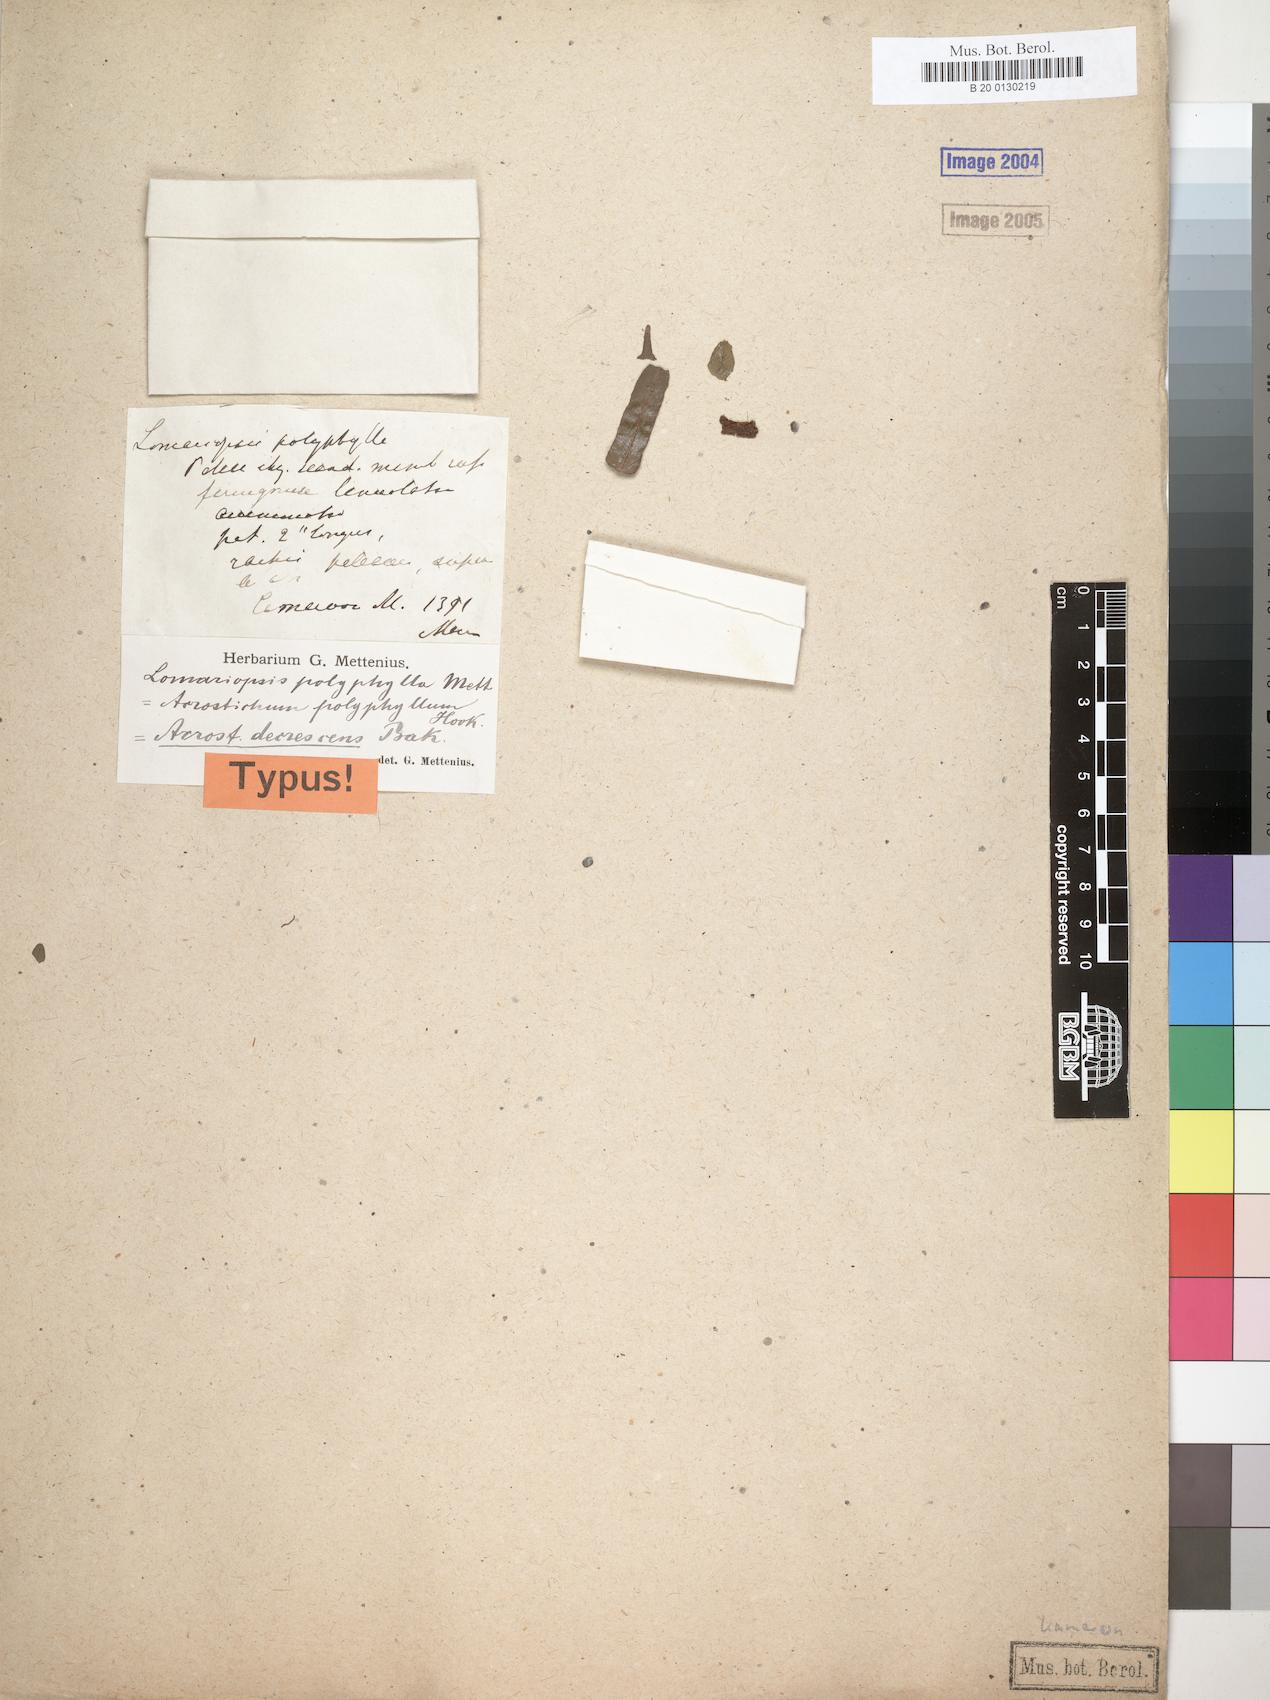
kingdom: Plantae
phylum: Tracheophyta
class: Polypodiopsida
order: Polypodiales
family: Lomariopsidaceae
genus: Lomariopsis
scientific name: Lomariopsis decrescens
